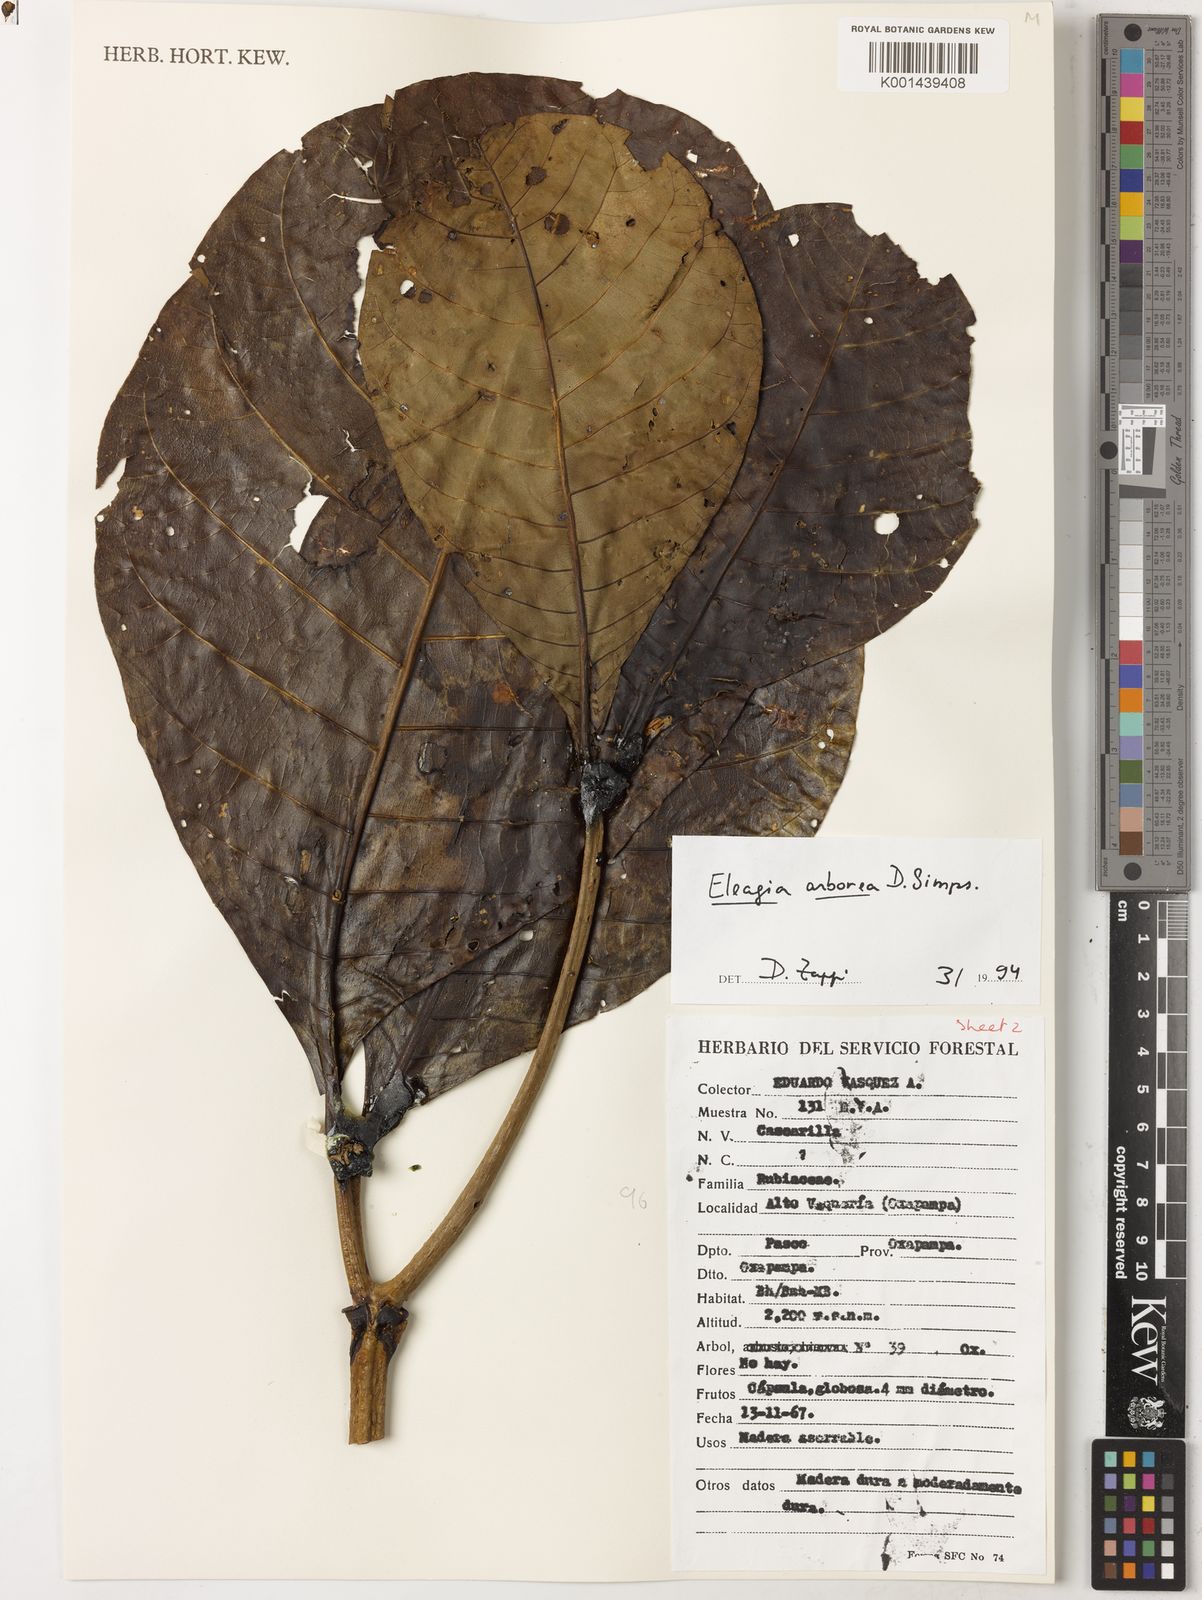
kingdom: Plantae
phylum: Tracheophyta
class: Magnoliopsida
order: Gentianales
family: Rubiaceae
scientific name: Rubiaceae
